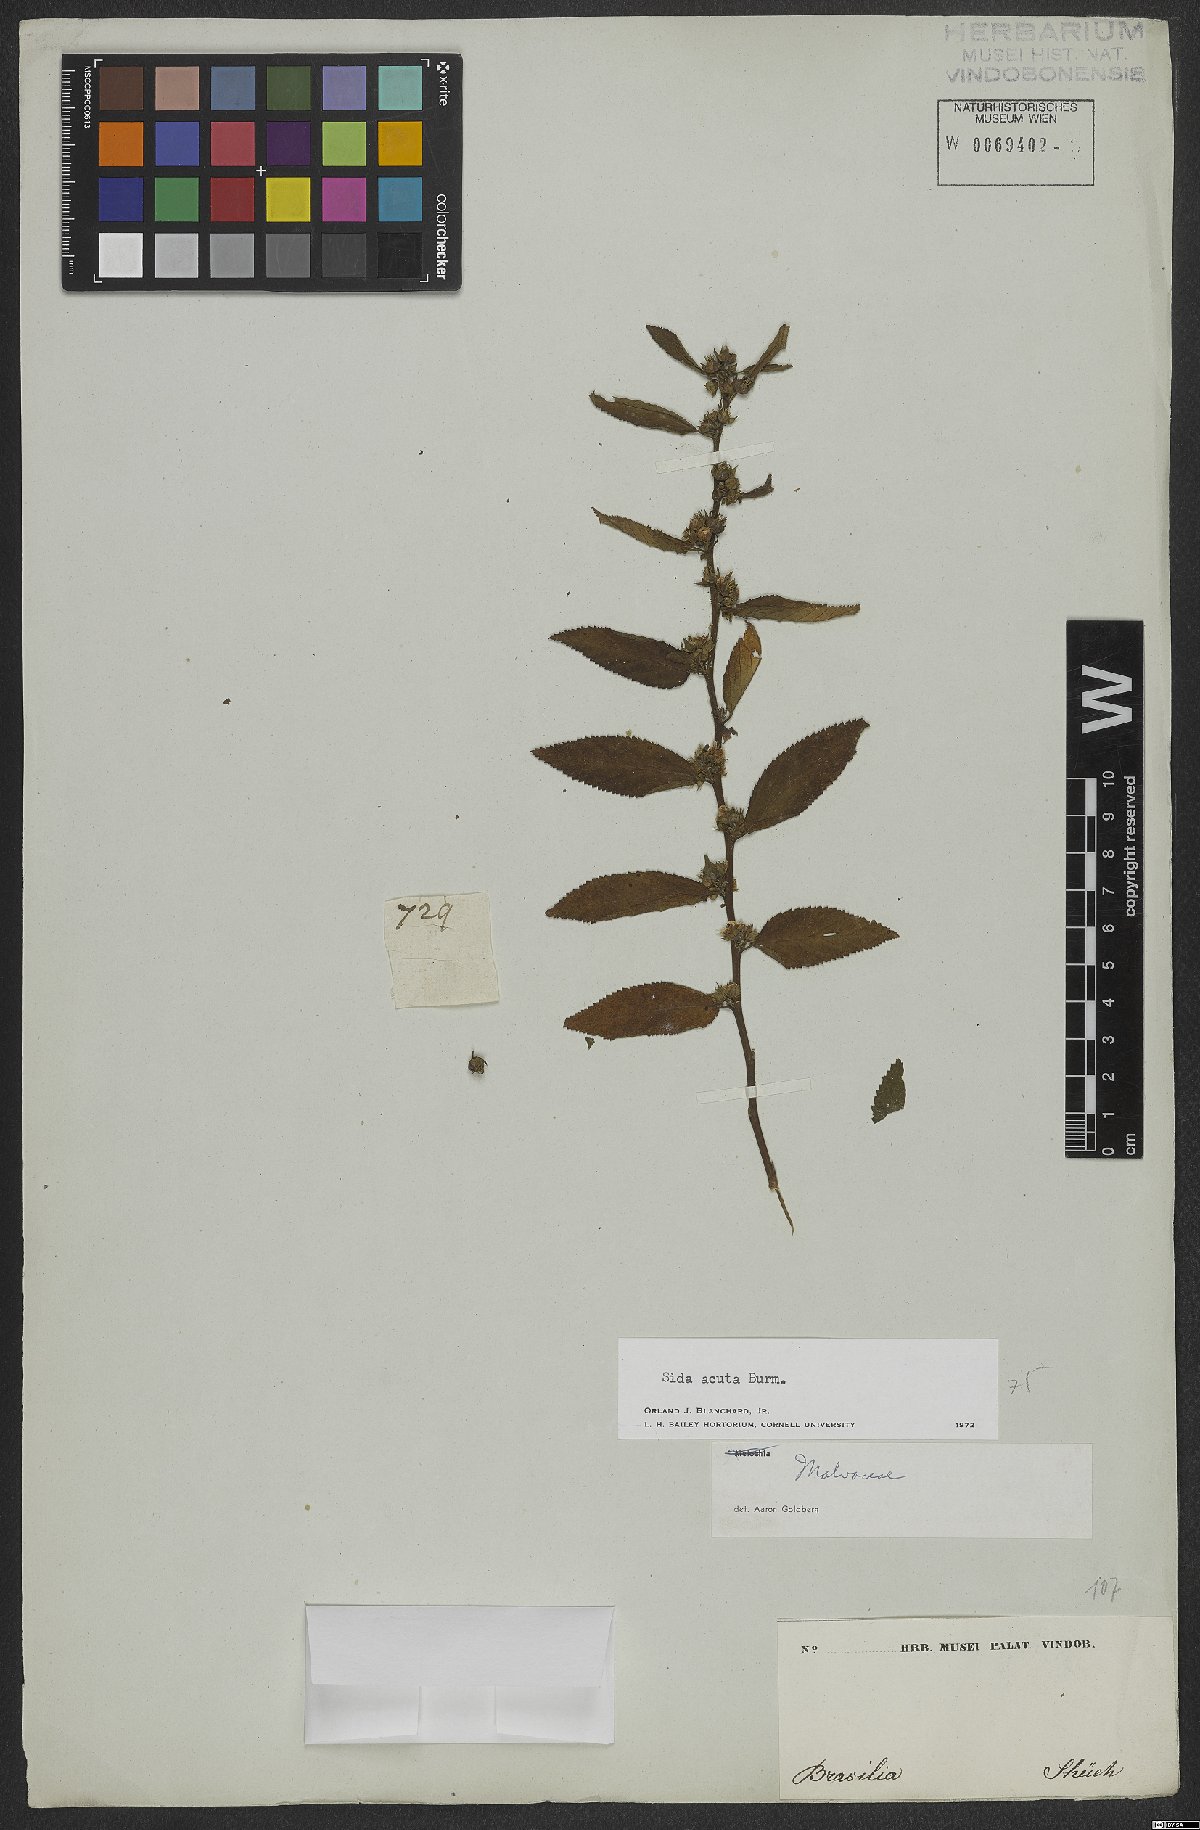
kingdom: Plantae
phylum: Tracheophyta
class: Magnoliopsida
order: Malvales
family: Malvaceae
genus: Sida
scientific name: Sida acuta
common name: Common wireweed
